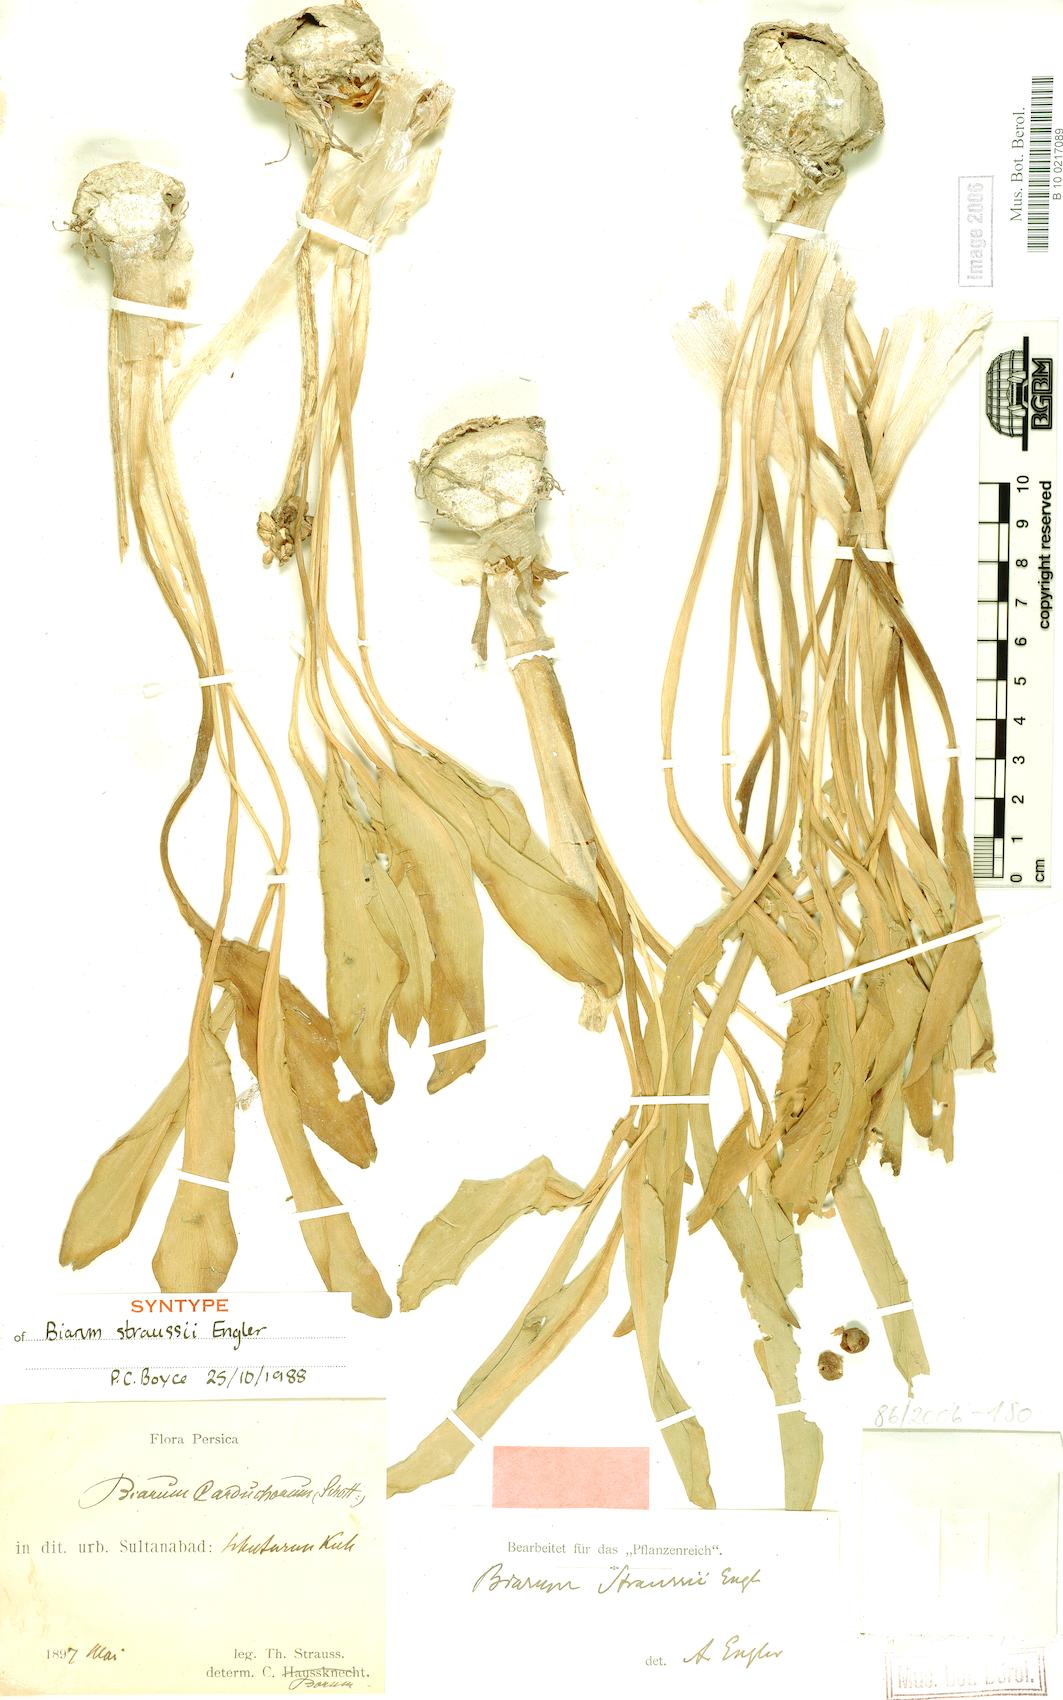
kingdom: Plantae
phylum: Tracheophyta
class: Liliopsida
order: Alismatales
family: Araceae
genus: Biarum
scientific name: Biarum straussii
